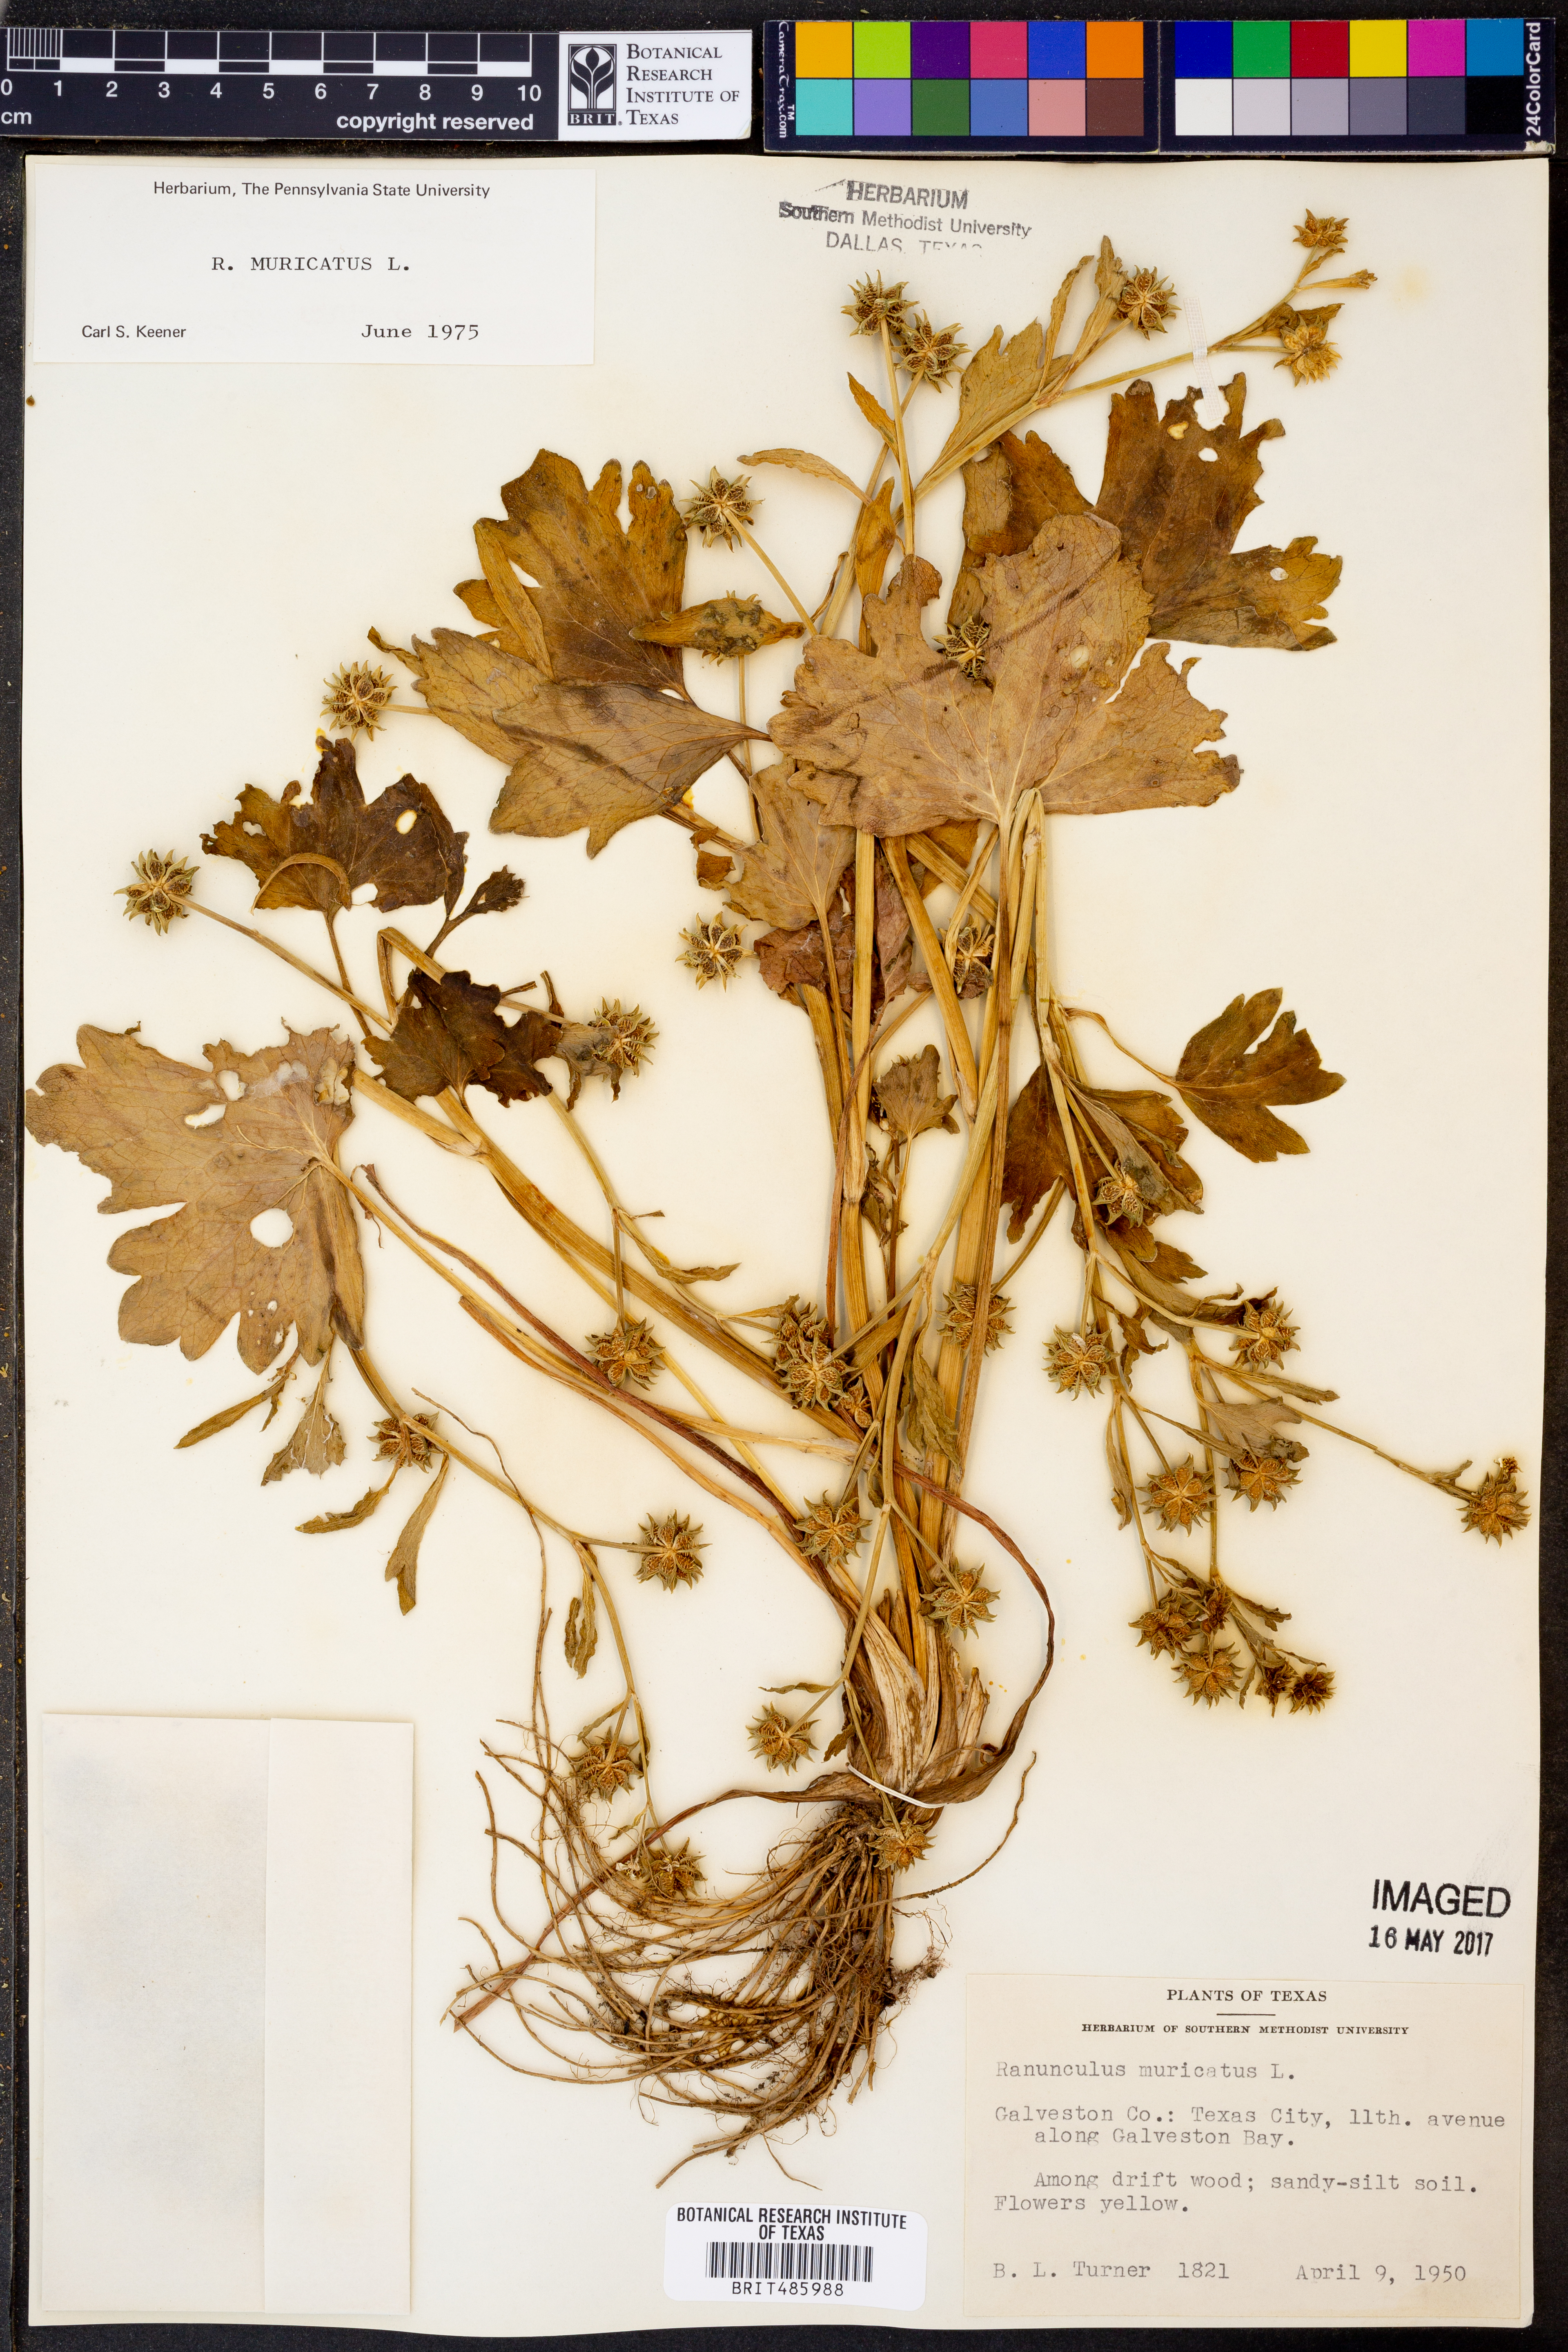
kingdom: Plantae
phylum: Tracheophyta
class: Magnoliopsida
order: Ranunculales
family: Ranunculaceae
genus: Ranunculus
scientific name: Ranunculus muricatus
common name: Rough-fruited buttercup
